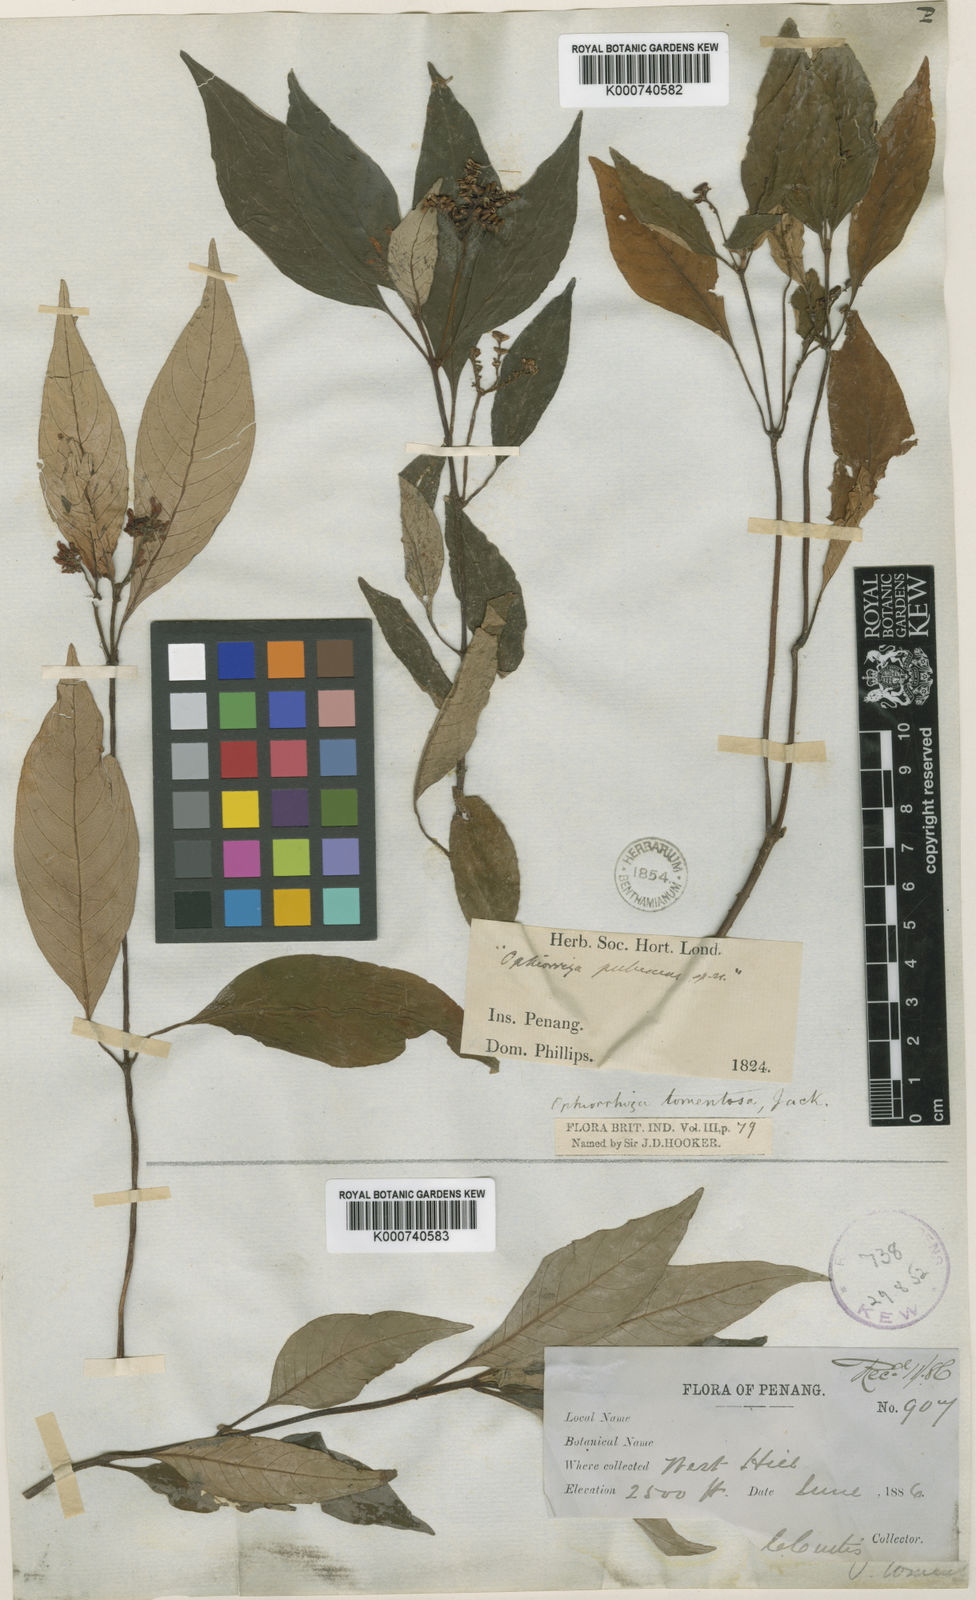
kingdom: Plantae
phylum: Tracheophyta
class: Magnoliopsida
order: Gentianales
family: Rubiaceae
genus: Ophiorrhiza
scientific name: Ophiorrhiza
